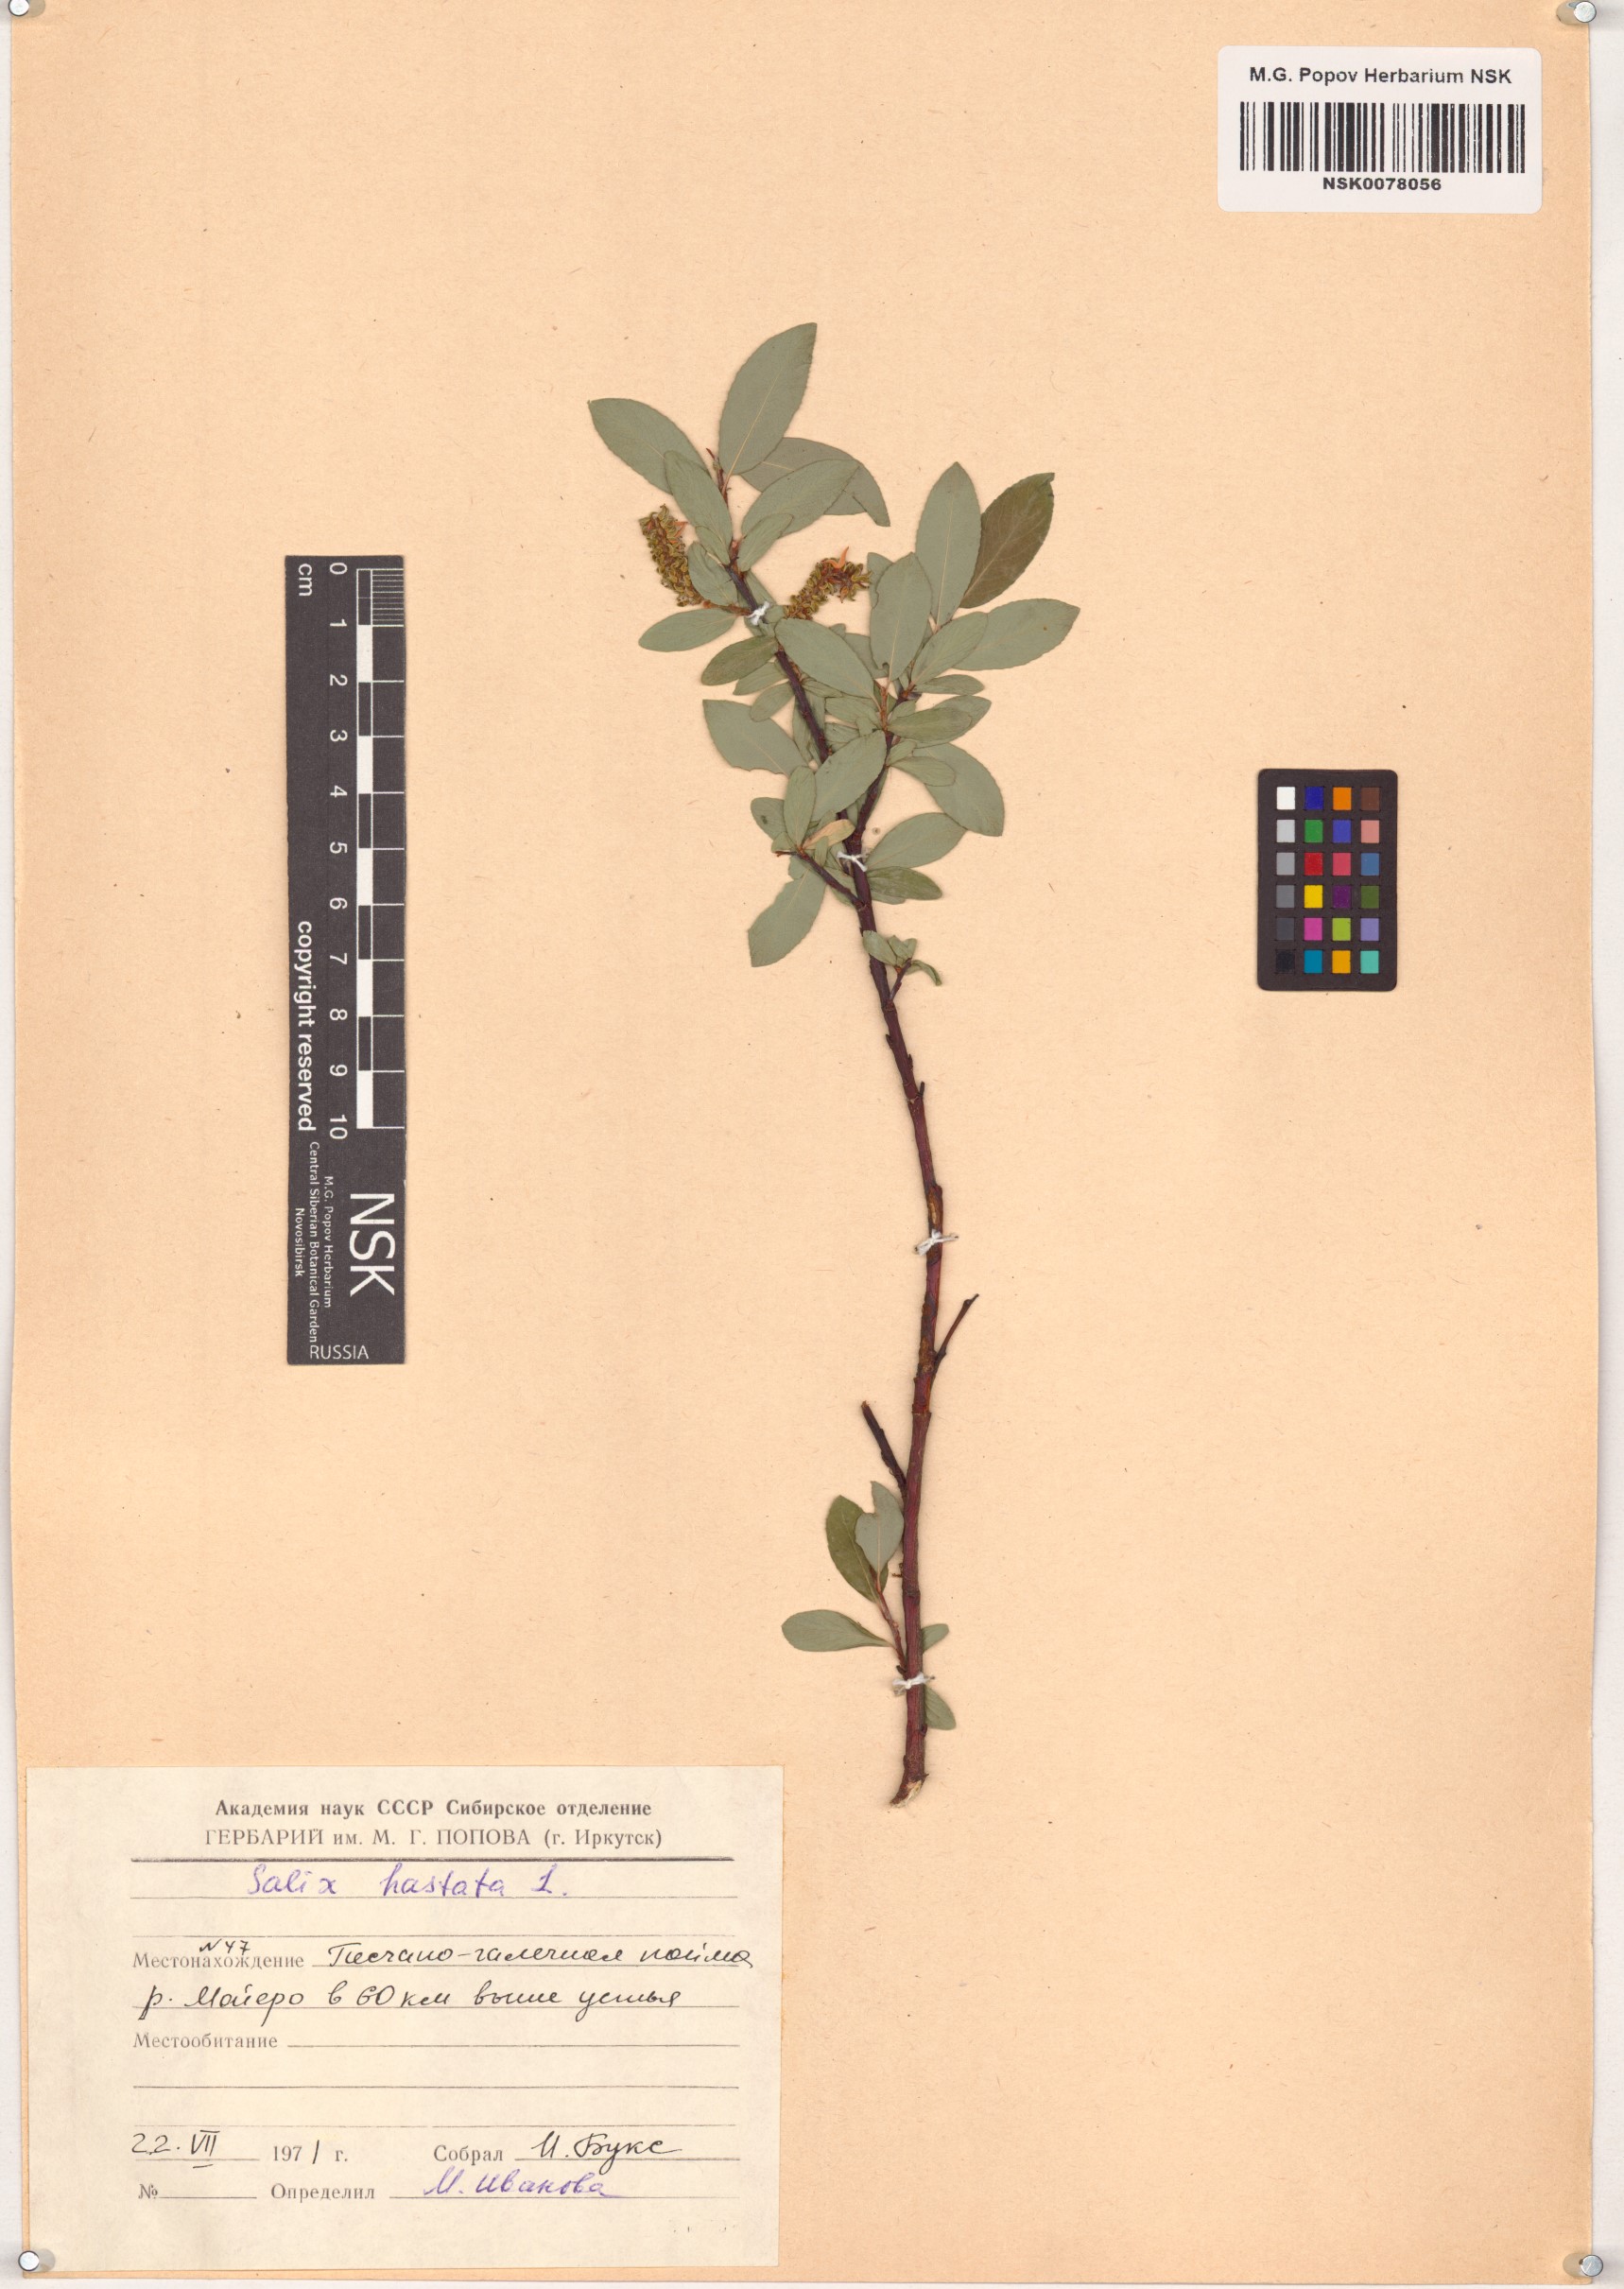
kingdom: Plantae
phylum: Tracheophyta
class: Magnoliopsida
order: Malpighiales
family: Salicaceae
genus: Salix
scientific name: Salix hastata
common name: Halberd willow
